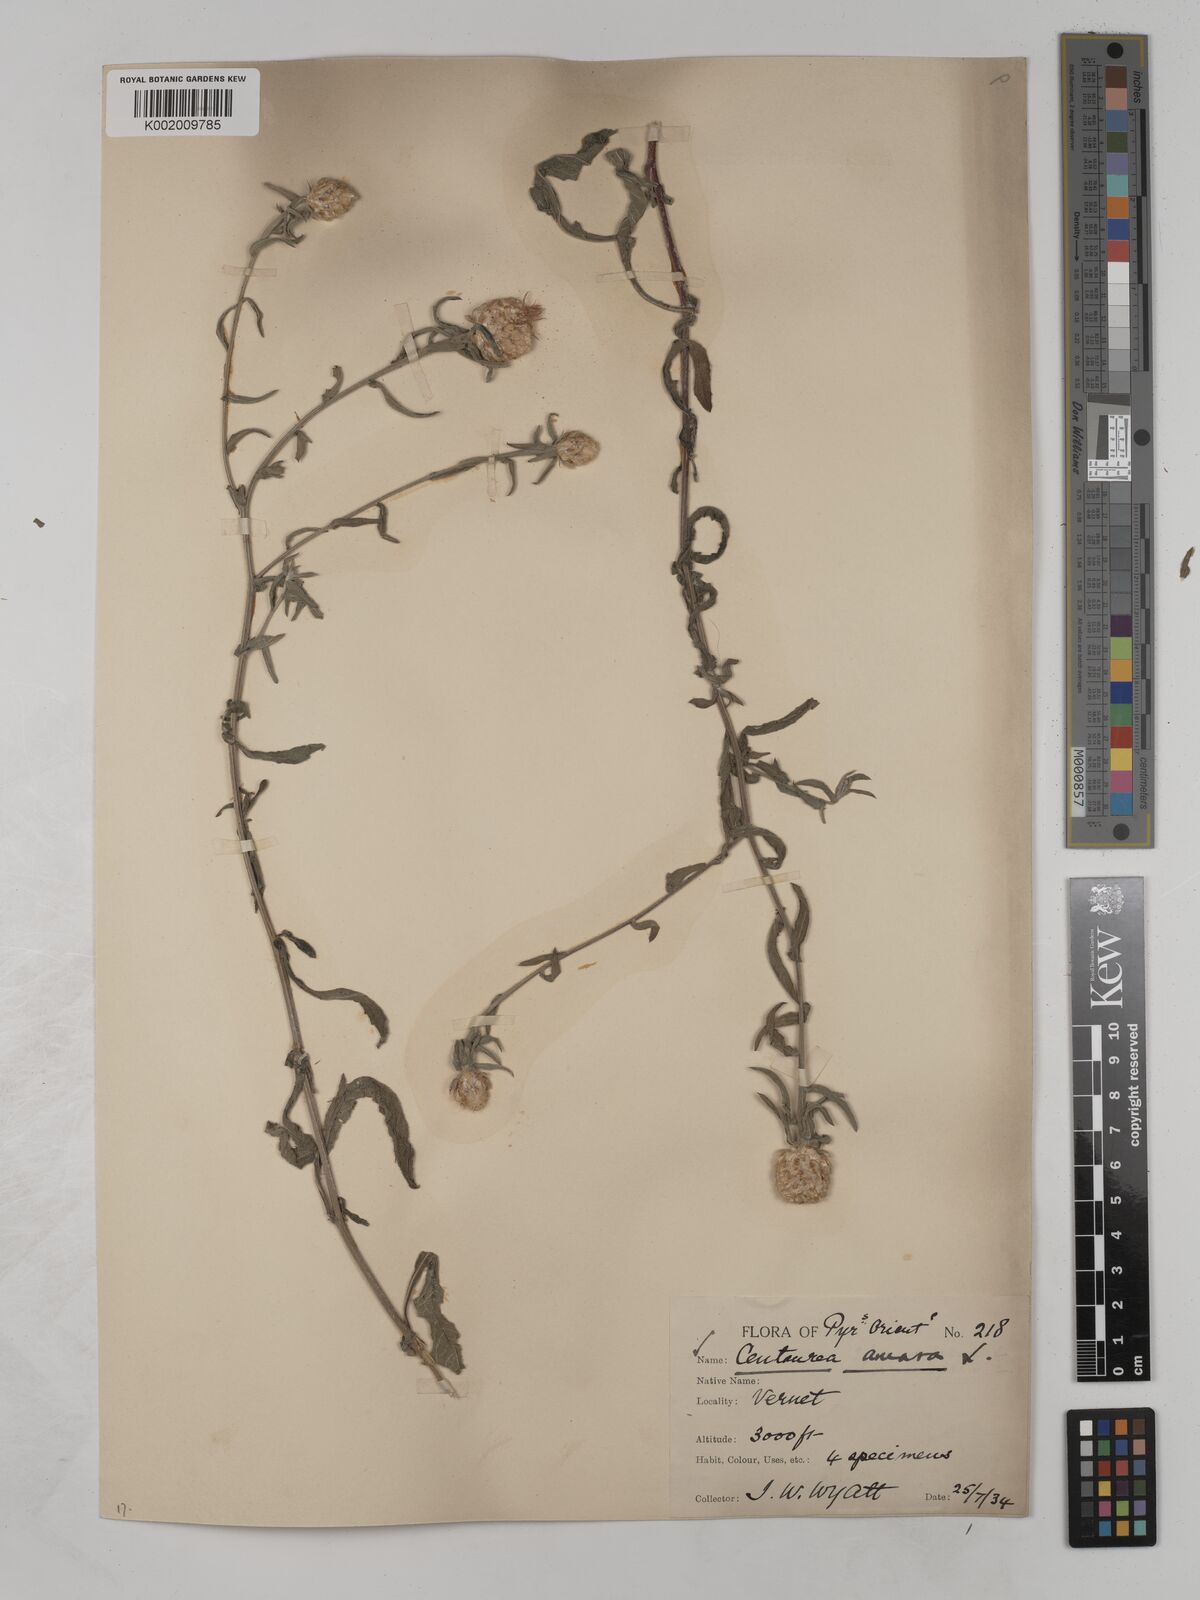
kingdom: Plantae
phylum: Tracheophyta
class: Magnoliopsida
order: Asterales
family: Asteraceae
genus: Centaurea
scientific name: Centaurea timbalii
